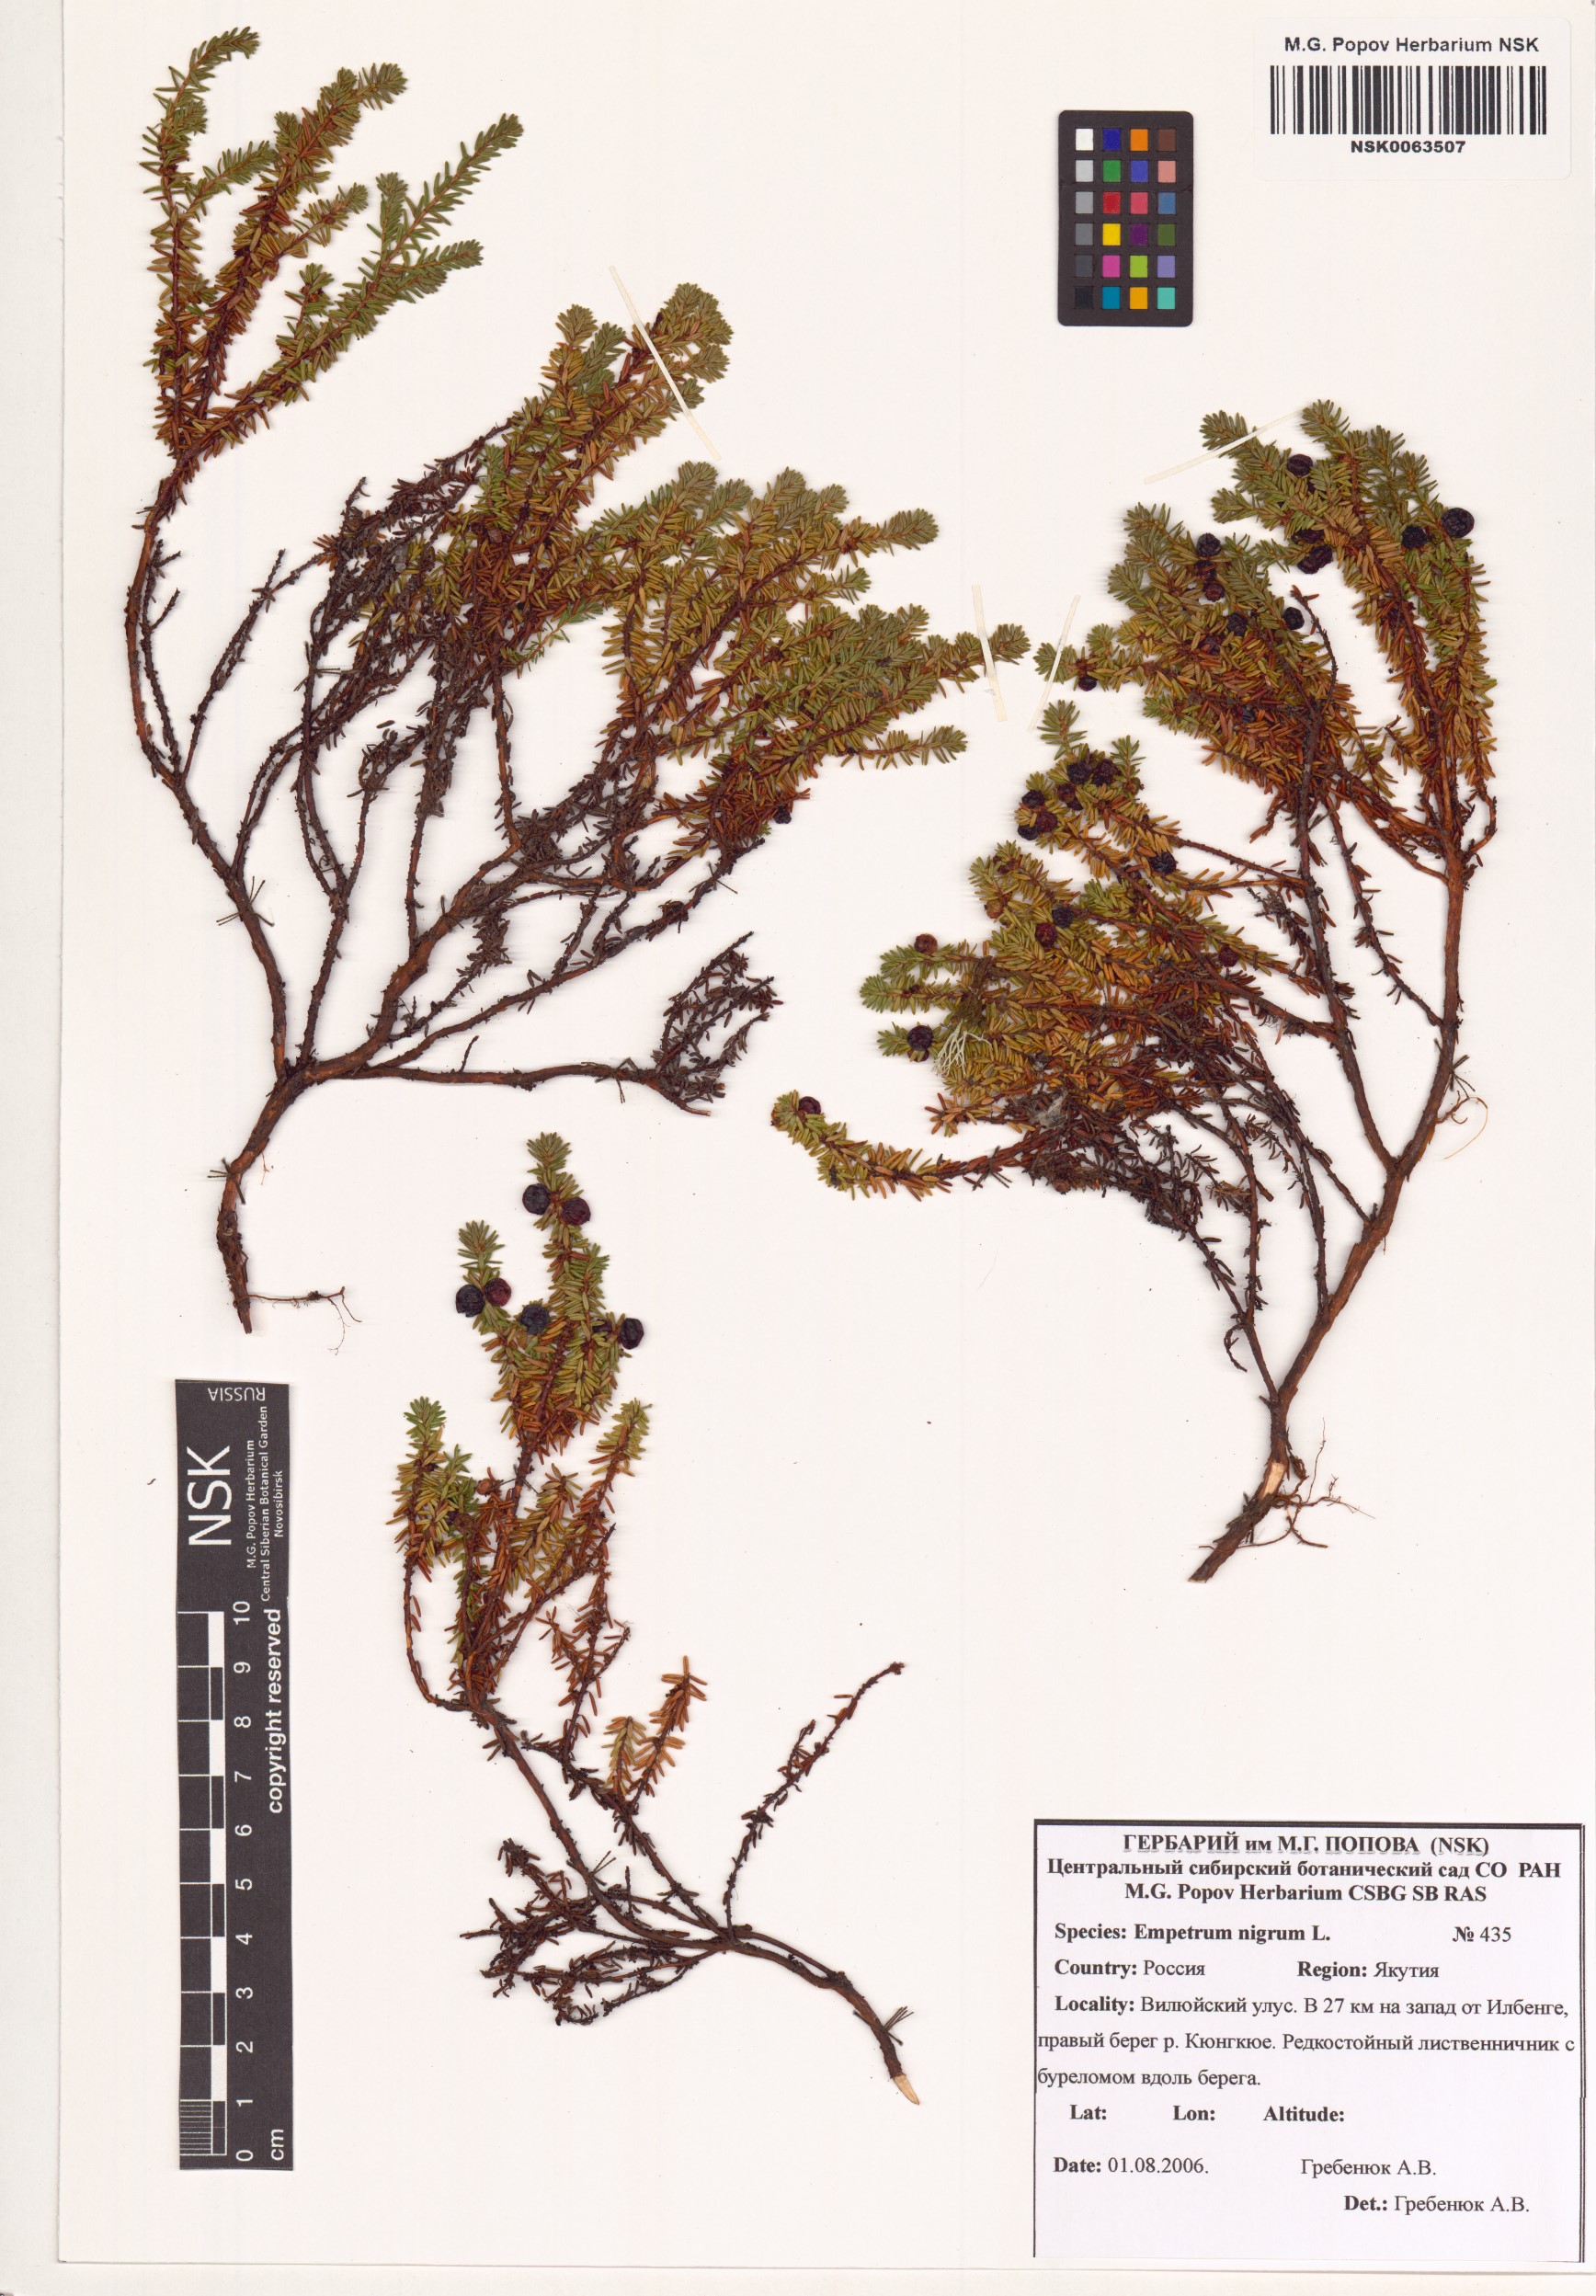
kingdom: Plantae
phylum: Tracheophyta
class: Magnoliopsida
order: Ericales
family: Ericaceae
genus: Empetrum
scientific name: Empetrum nigrum
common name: Black crowberry
